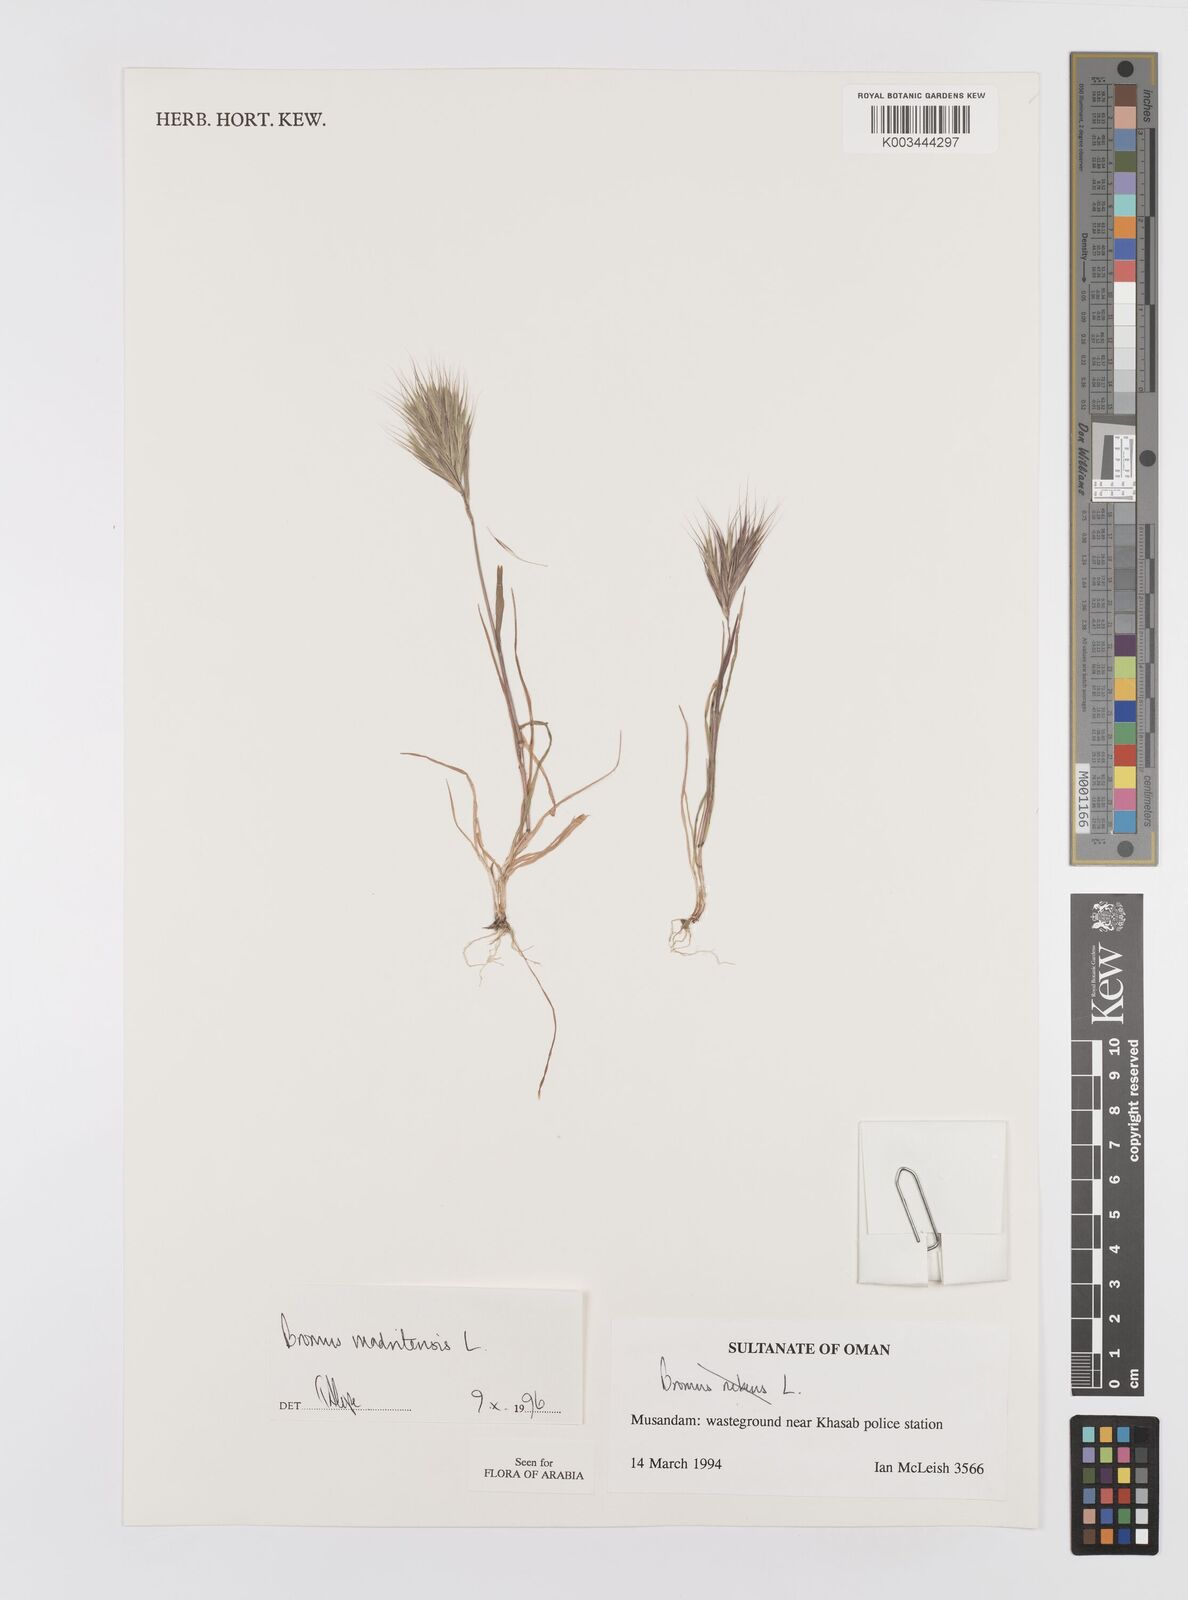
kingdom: Plantae
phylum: Tracheophyta
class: Liliopsida
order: Poales
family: Poaceae
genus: Bromus
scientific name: Bromus madritensis
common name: Compact brome
